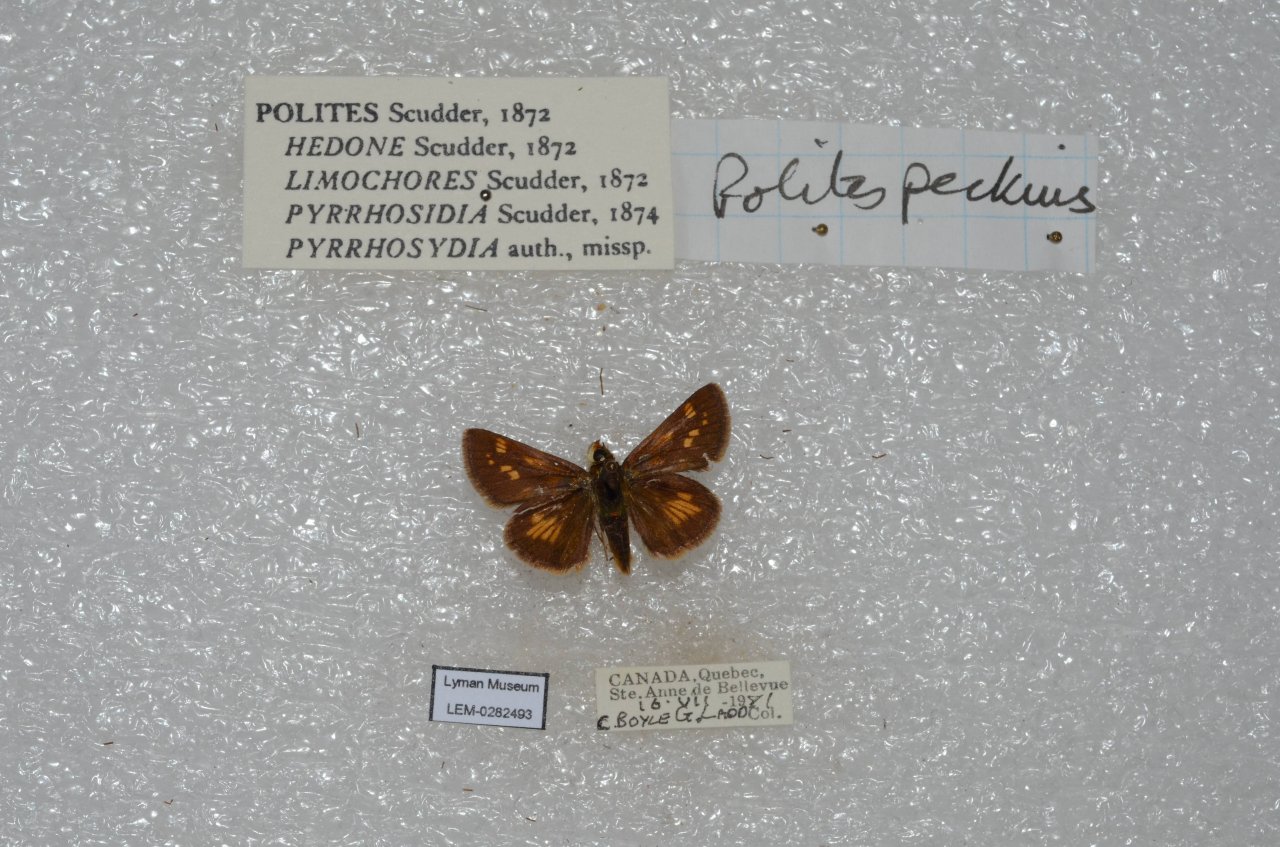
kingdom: Animalia
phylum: Arthropoda
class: Insecta
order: Lepidoptera
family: Hesperiidae
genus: Polites
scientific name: Polites coras
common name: Peck's Skipper
